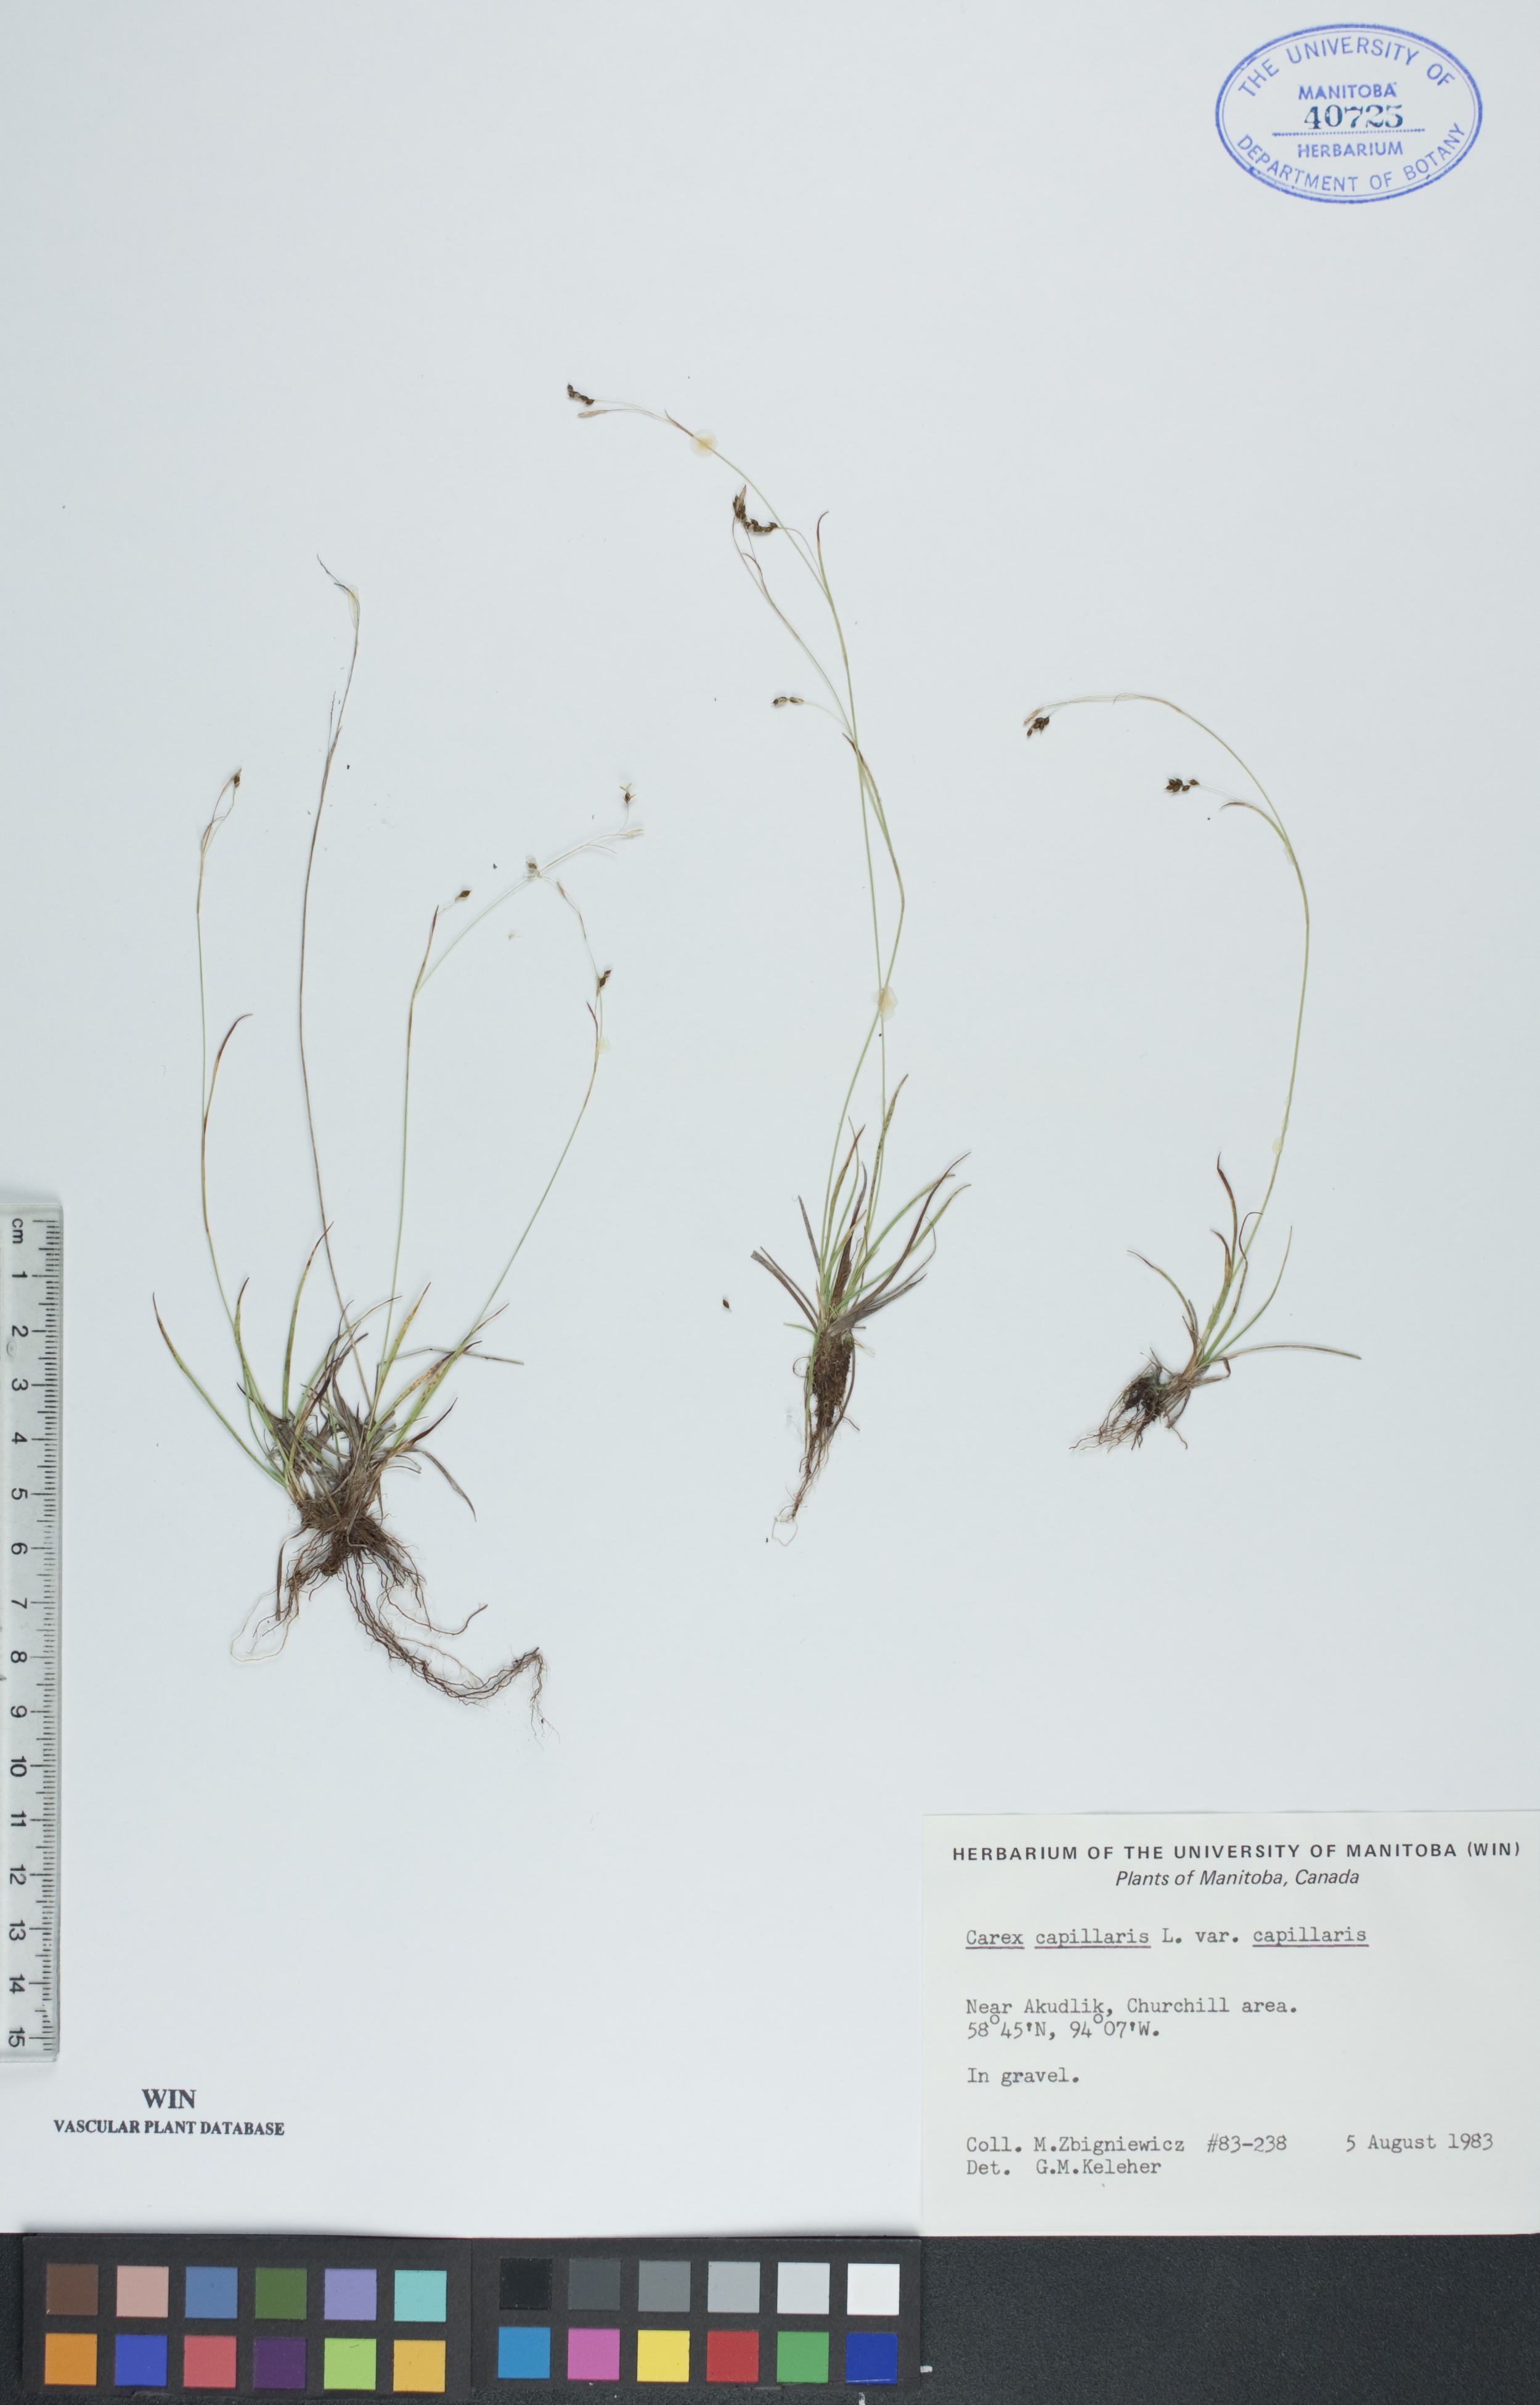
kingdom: Plantae
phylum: Tracheophyta
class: Liliopsida
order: Poales
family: Cyperaceae
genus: Carex
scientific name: Carex capillaris
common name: Hair sedge
